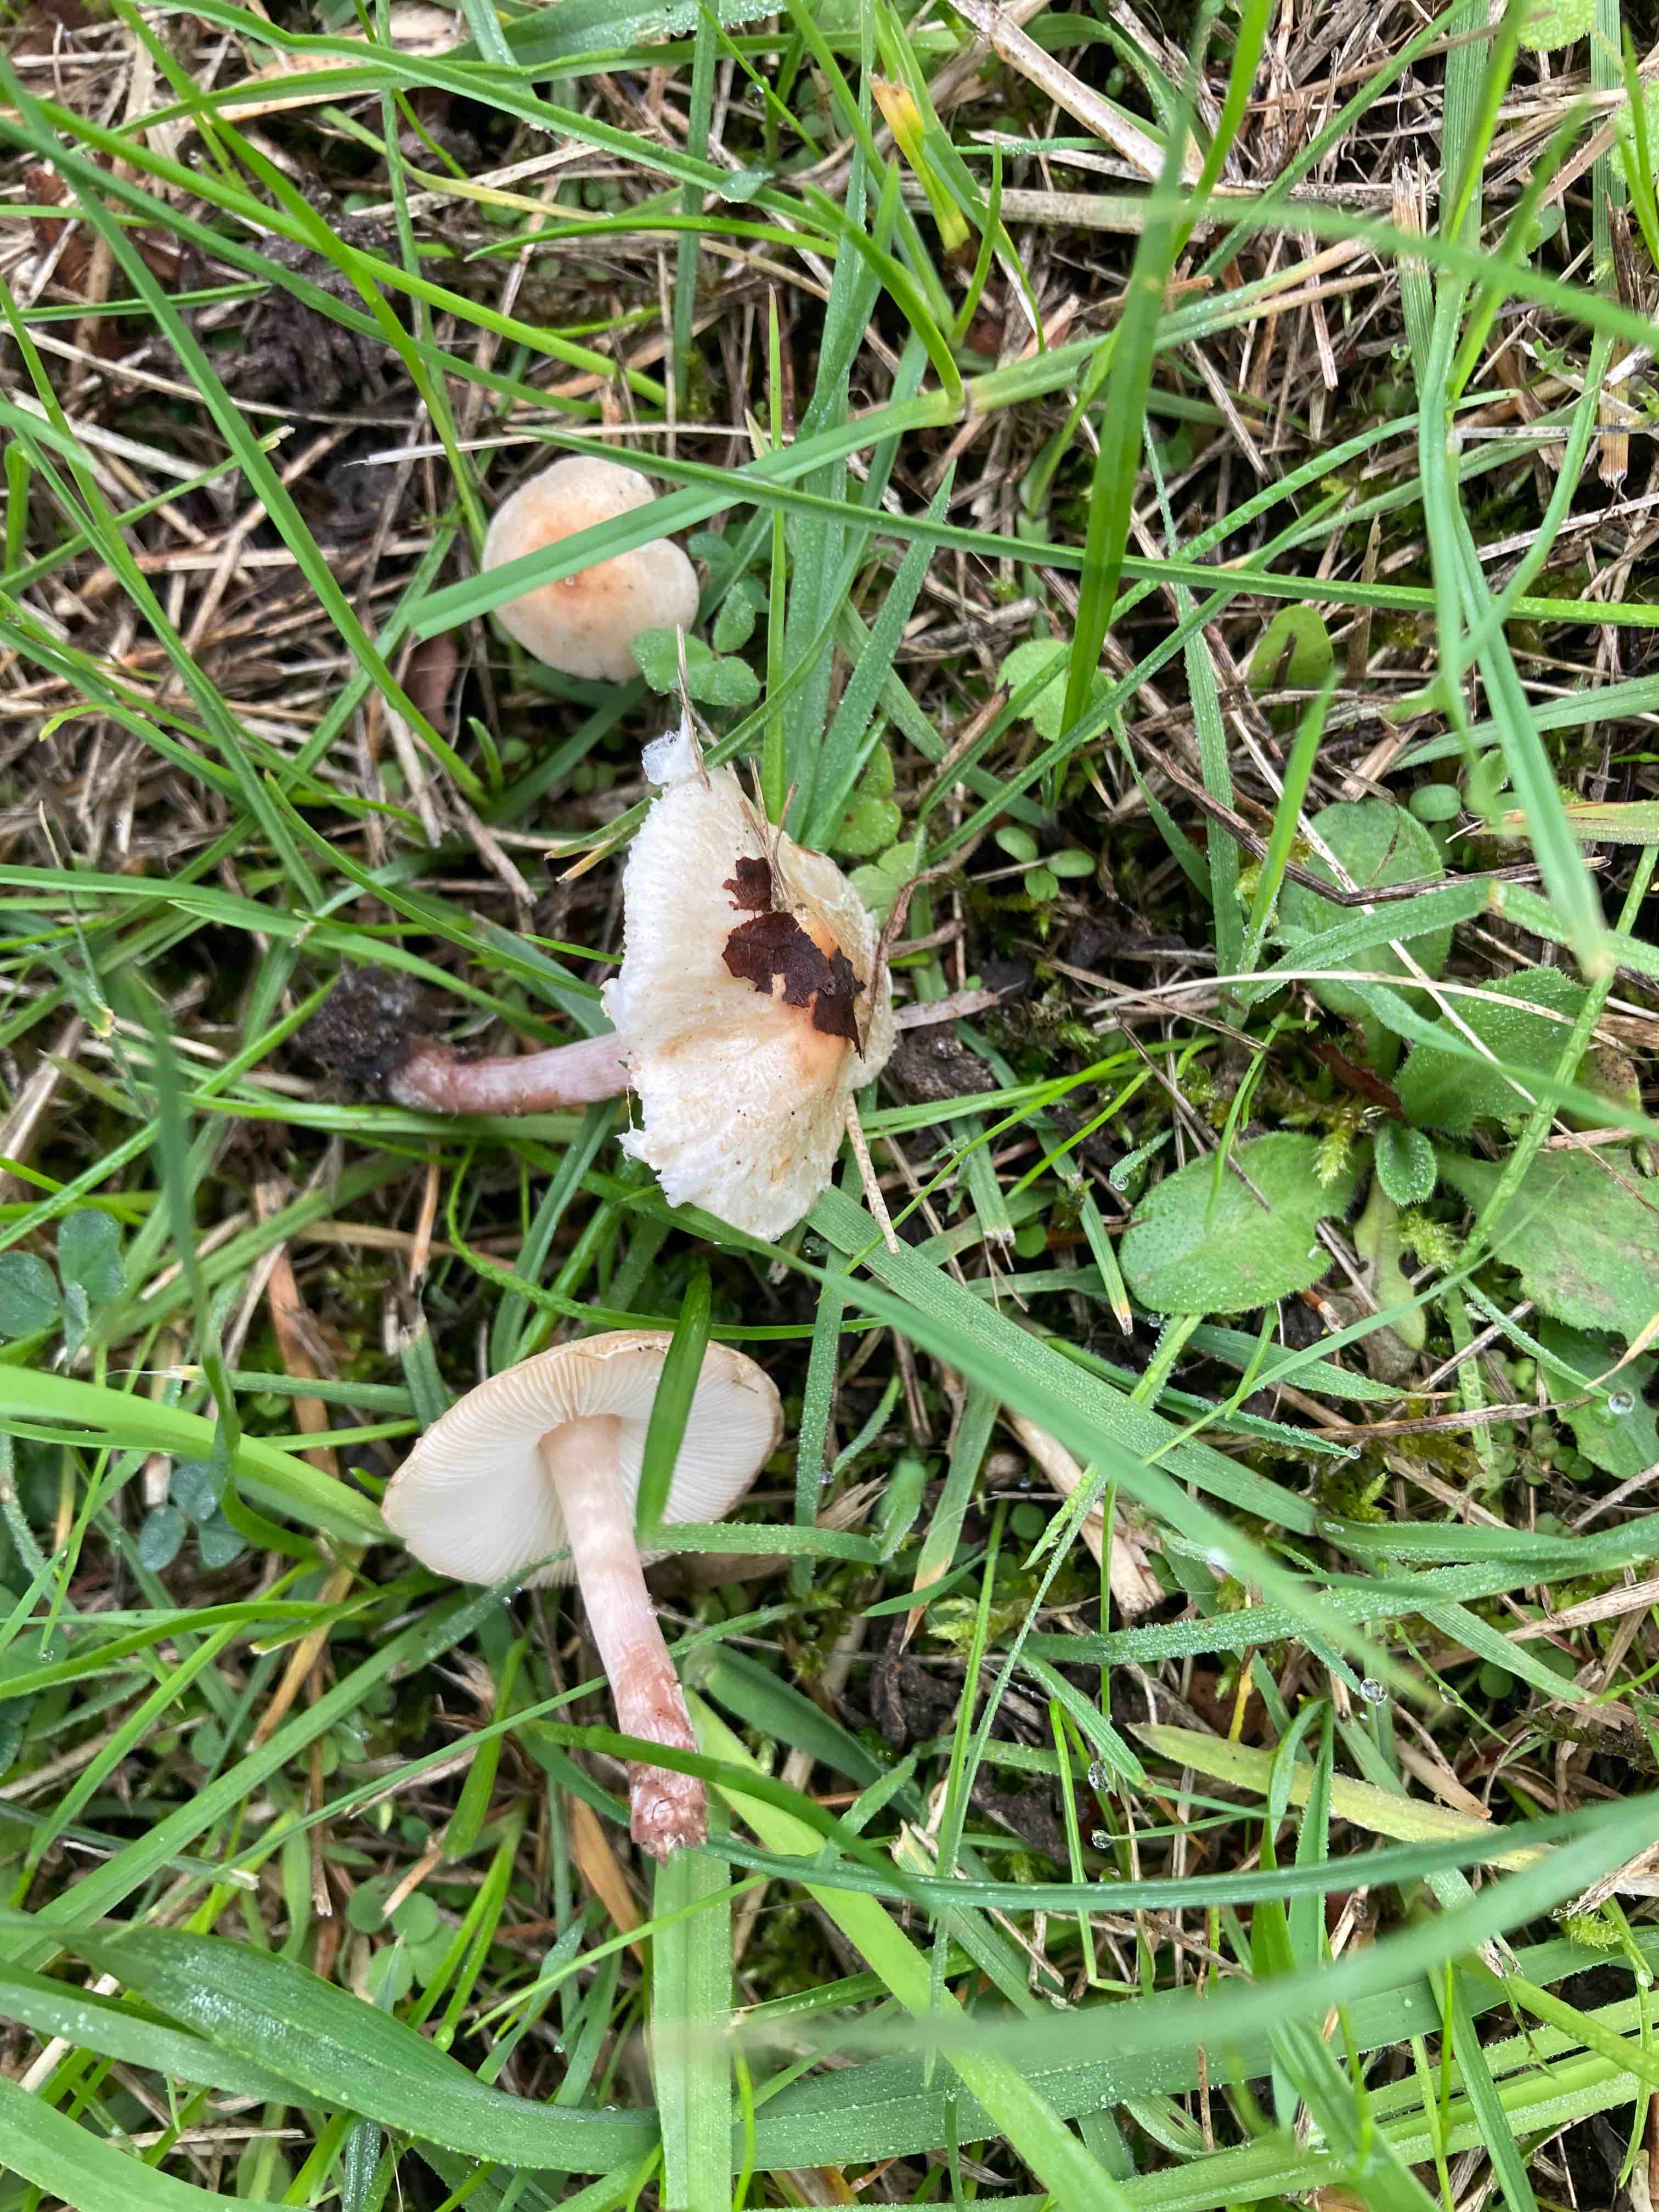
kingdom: Fungi
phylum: Basidiomycota
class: Agaricomycetes
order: Agaricales
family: Agaricaceae
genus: Lepiota
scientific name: Lepiota cristata
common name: stinkende parasolhat
